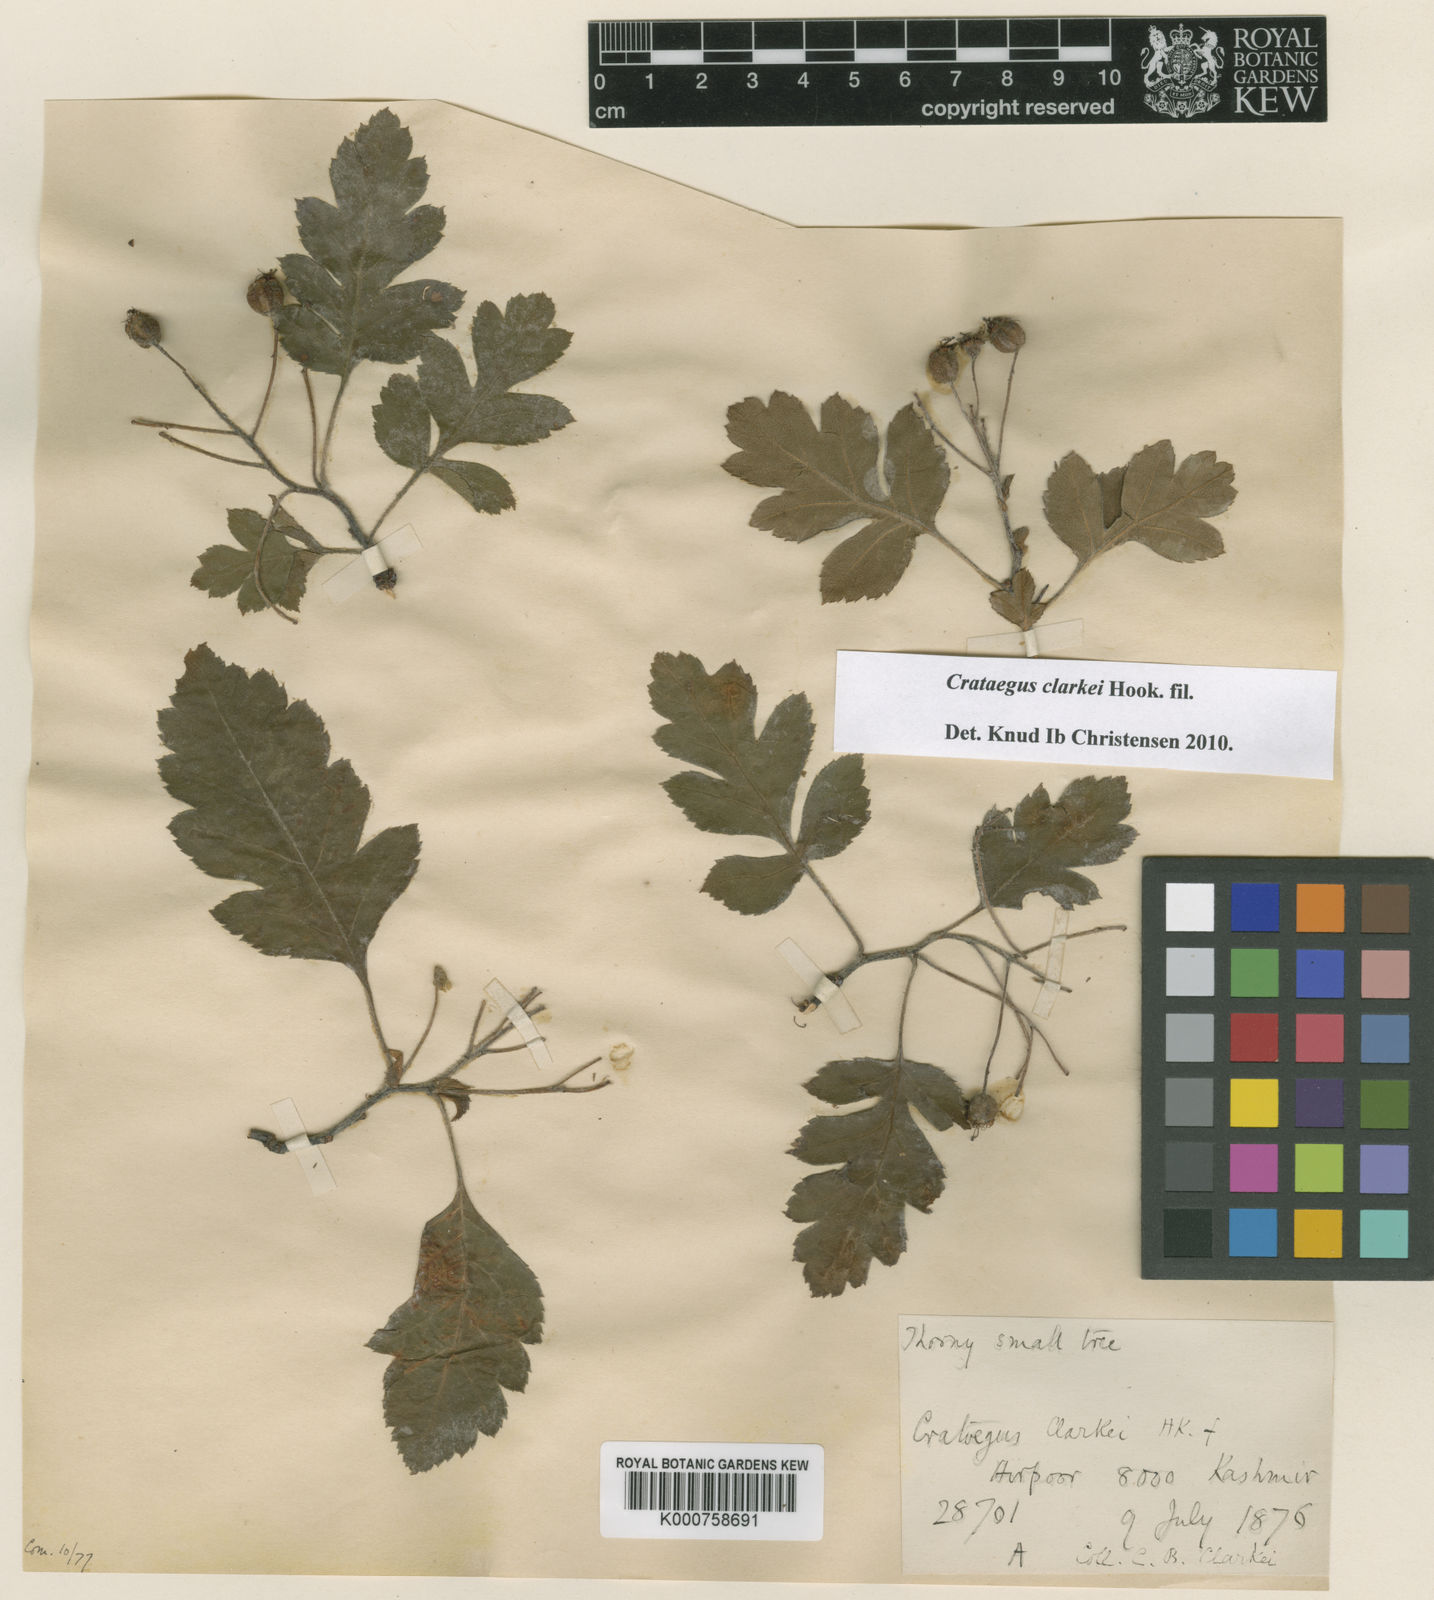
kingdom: Plantae
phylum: Tracheophyta
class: Magnoliopsida
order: Rosales
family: Rosaceae
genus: Crataegus
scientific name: Crataegus clarkei
